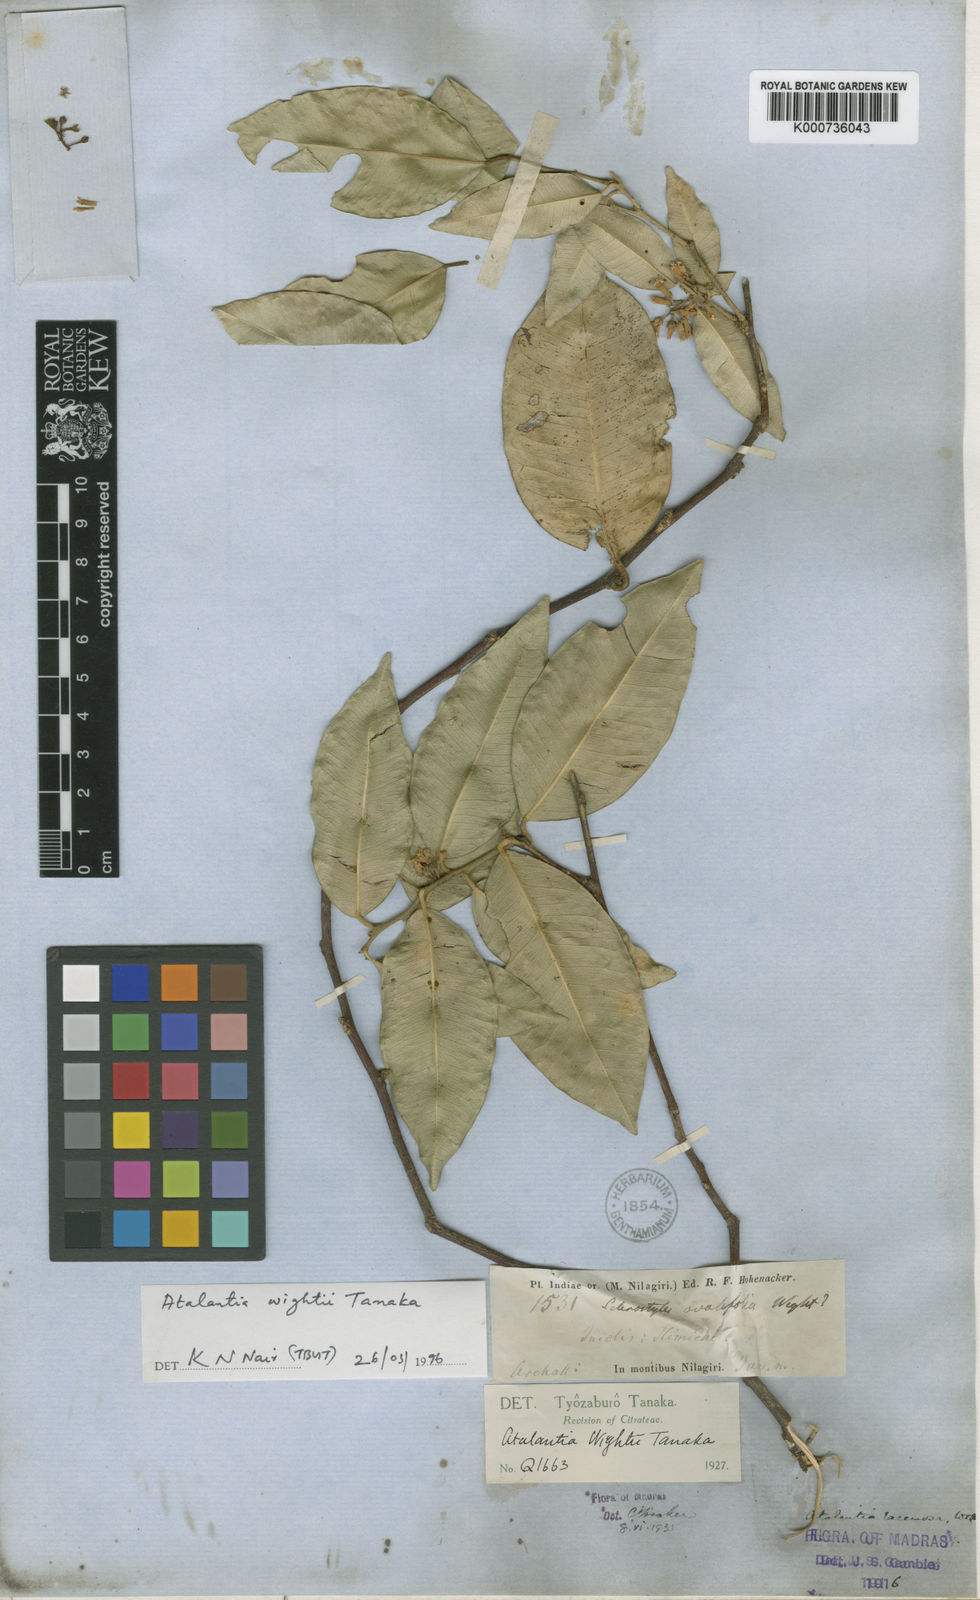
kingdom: Plantae
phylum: Tracheophyta
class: Magnoliopsida
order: Sapindales
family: Rutaceae
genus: Atalantia
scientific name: Atalantia wightii
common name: Nilgiri atalantia
